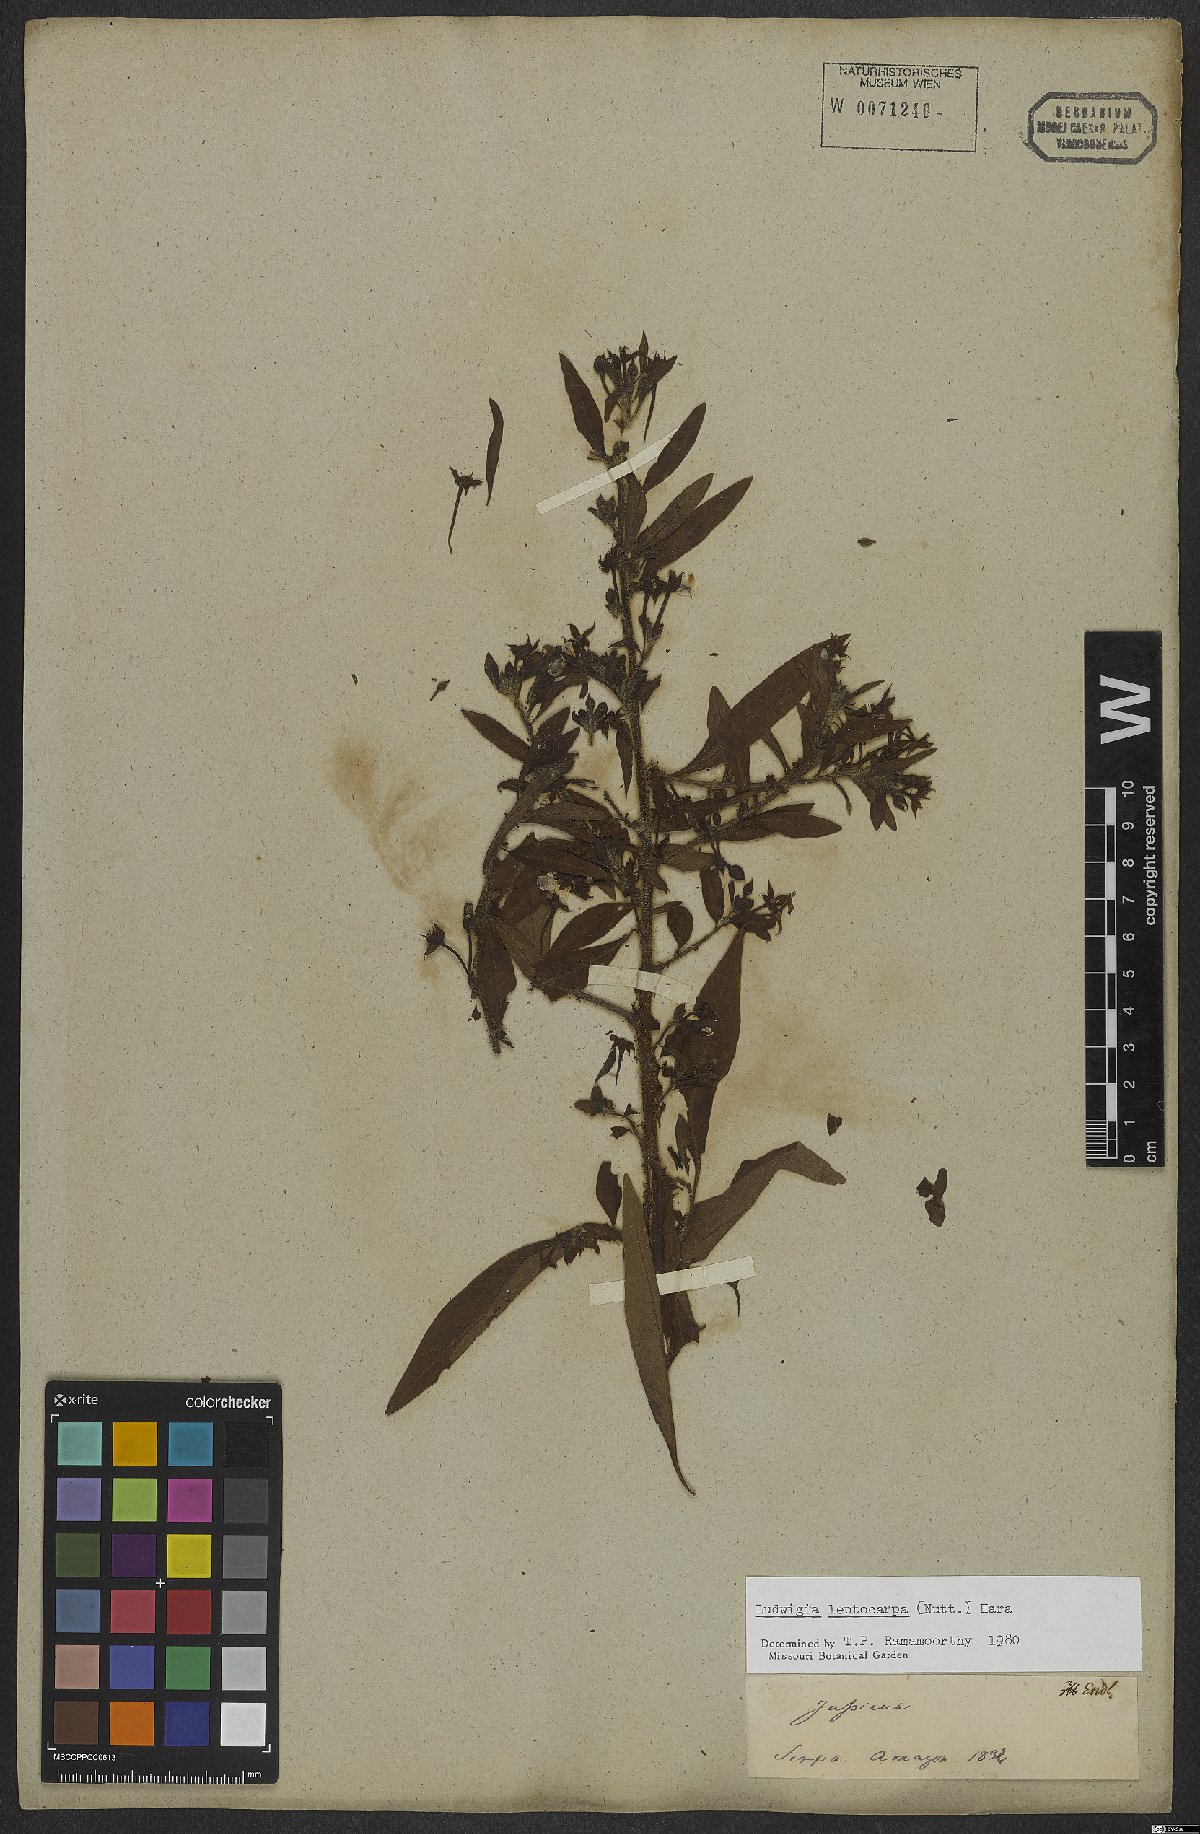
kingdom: Plantae
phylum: Tracheophyta
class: Magnoliopsida
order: Myrtales
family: Onagraceae
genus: Ludwigia
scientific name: Ludwigia leptocarpa
